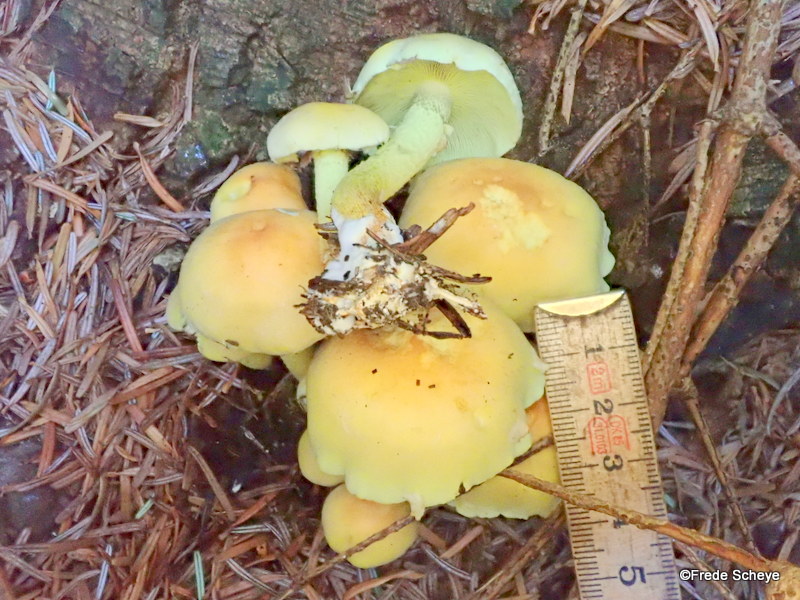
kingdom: Fungi
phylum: Basidiomycota
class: Agaricomycetes
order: Agaricales
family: Strophariaceae
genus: Hypholoma
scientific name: Hypholoma fasciculare
